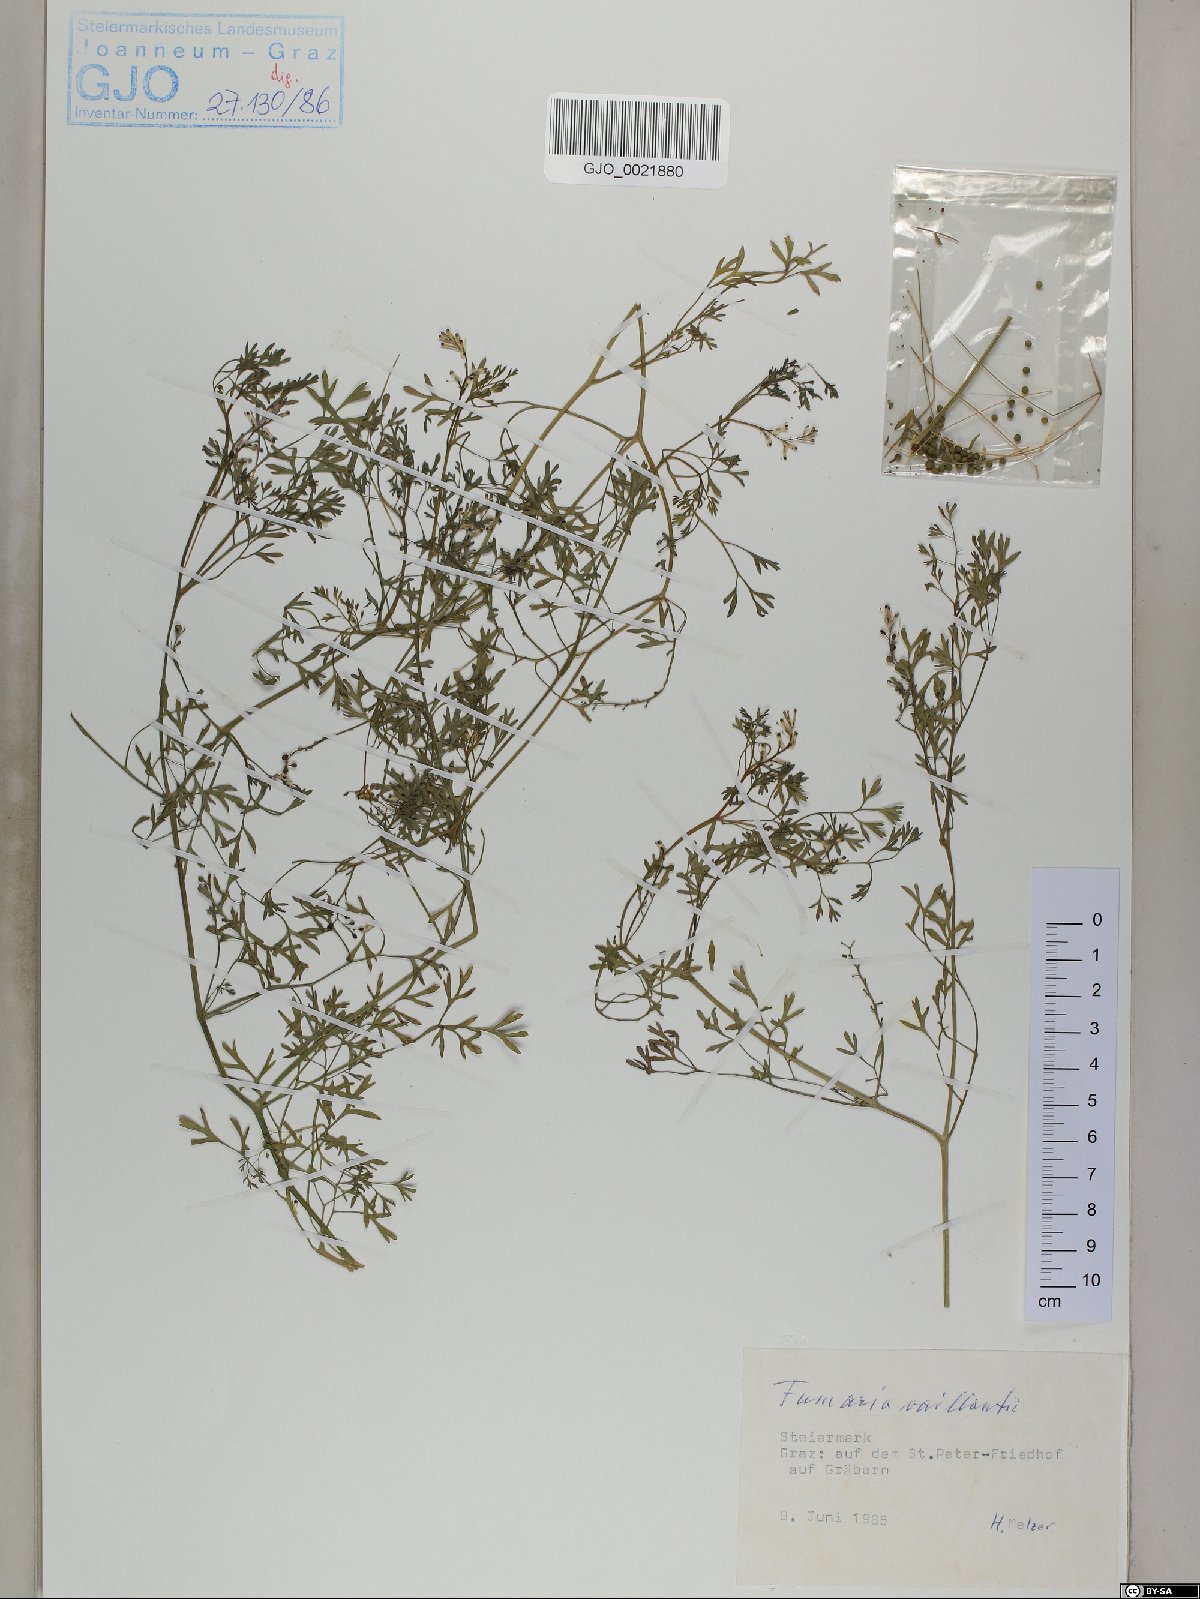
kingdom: Plantae
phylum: Tracheophyta
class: Magnoliopsida
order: Ranunculales
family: Papaveraceae
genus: Fumaria
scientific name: Fumaria vaillantii
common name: Few-flowered fumitory
